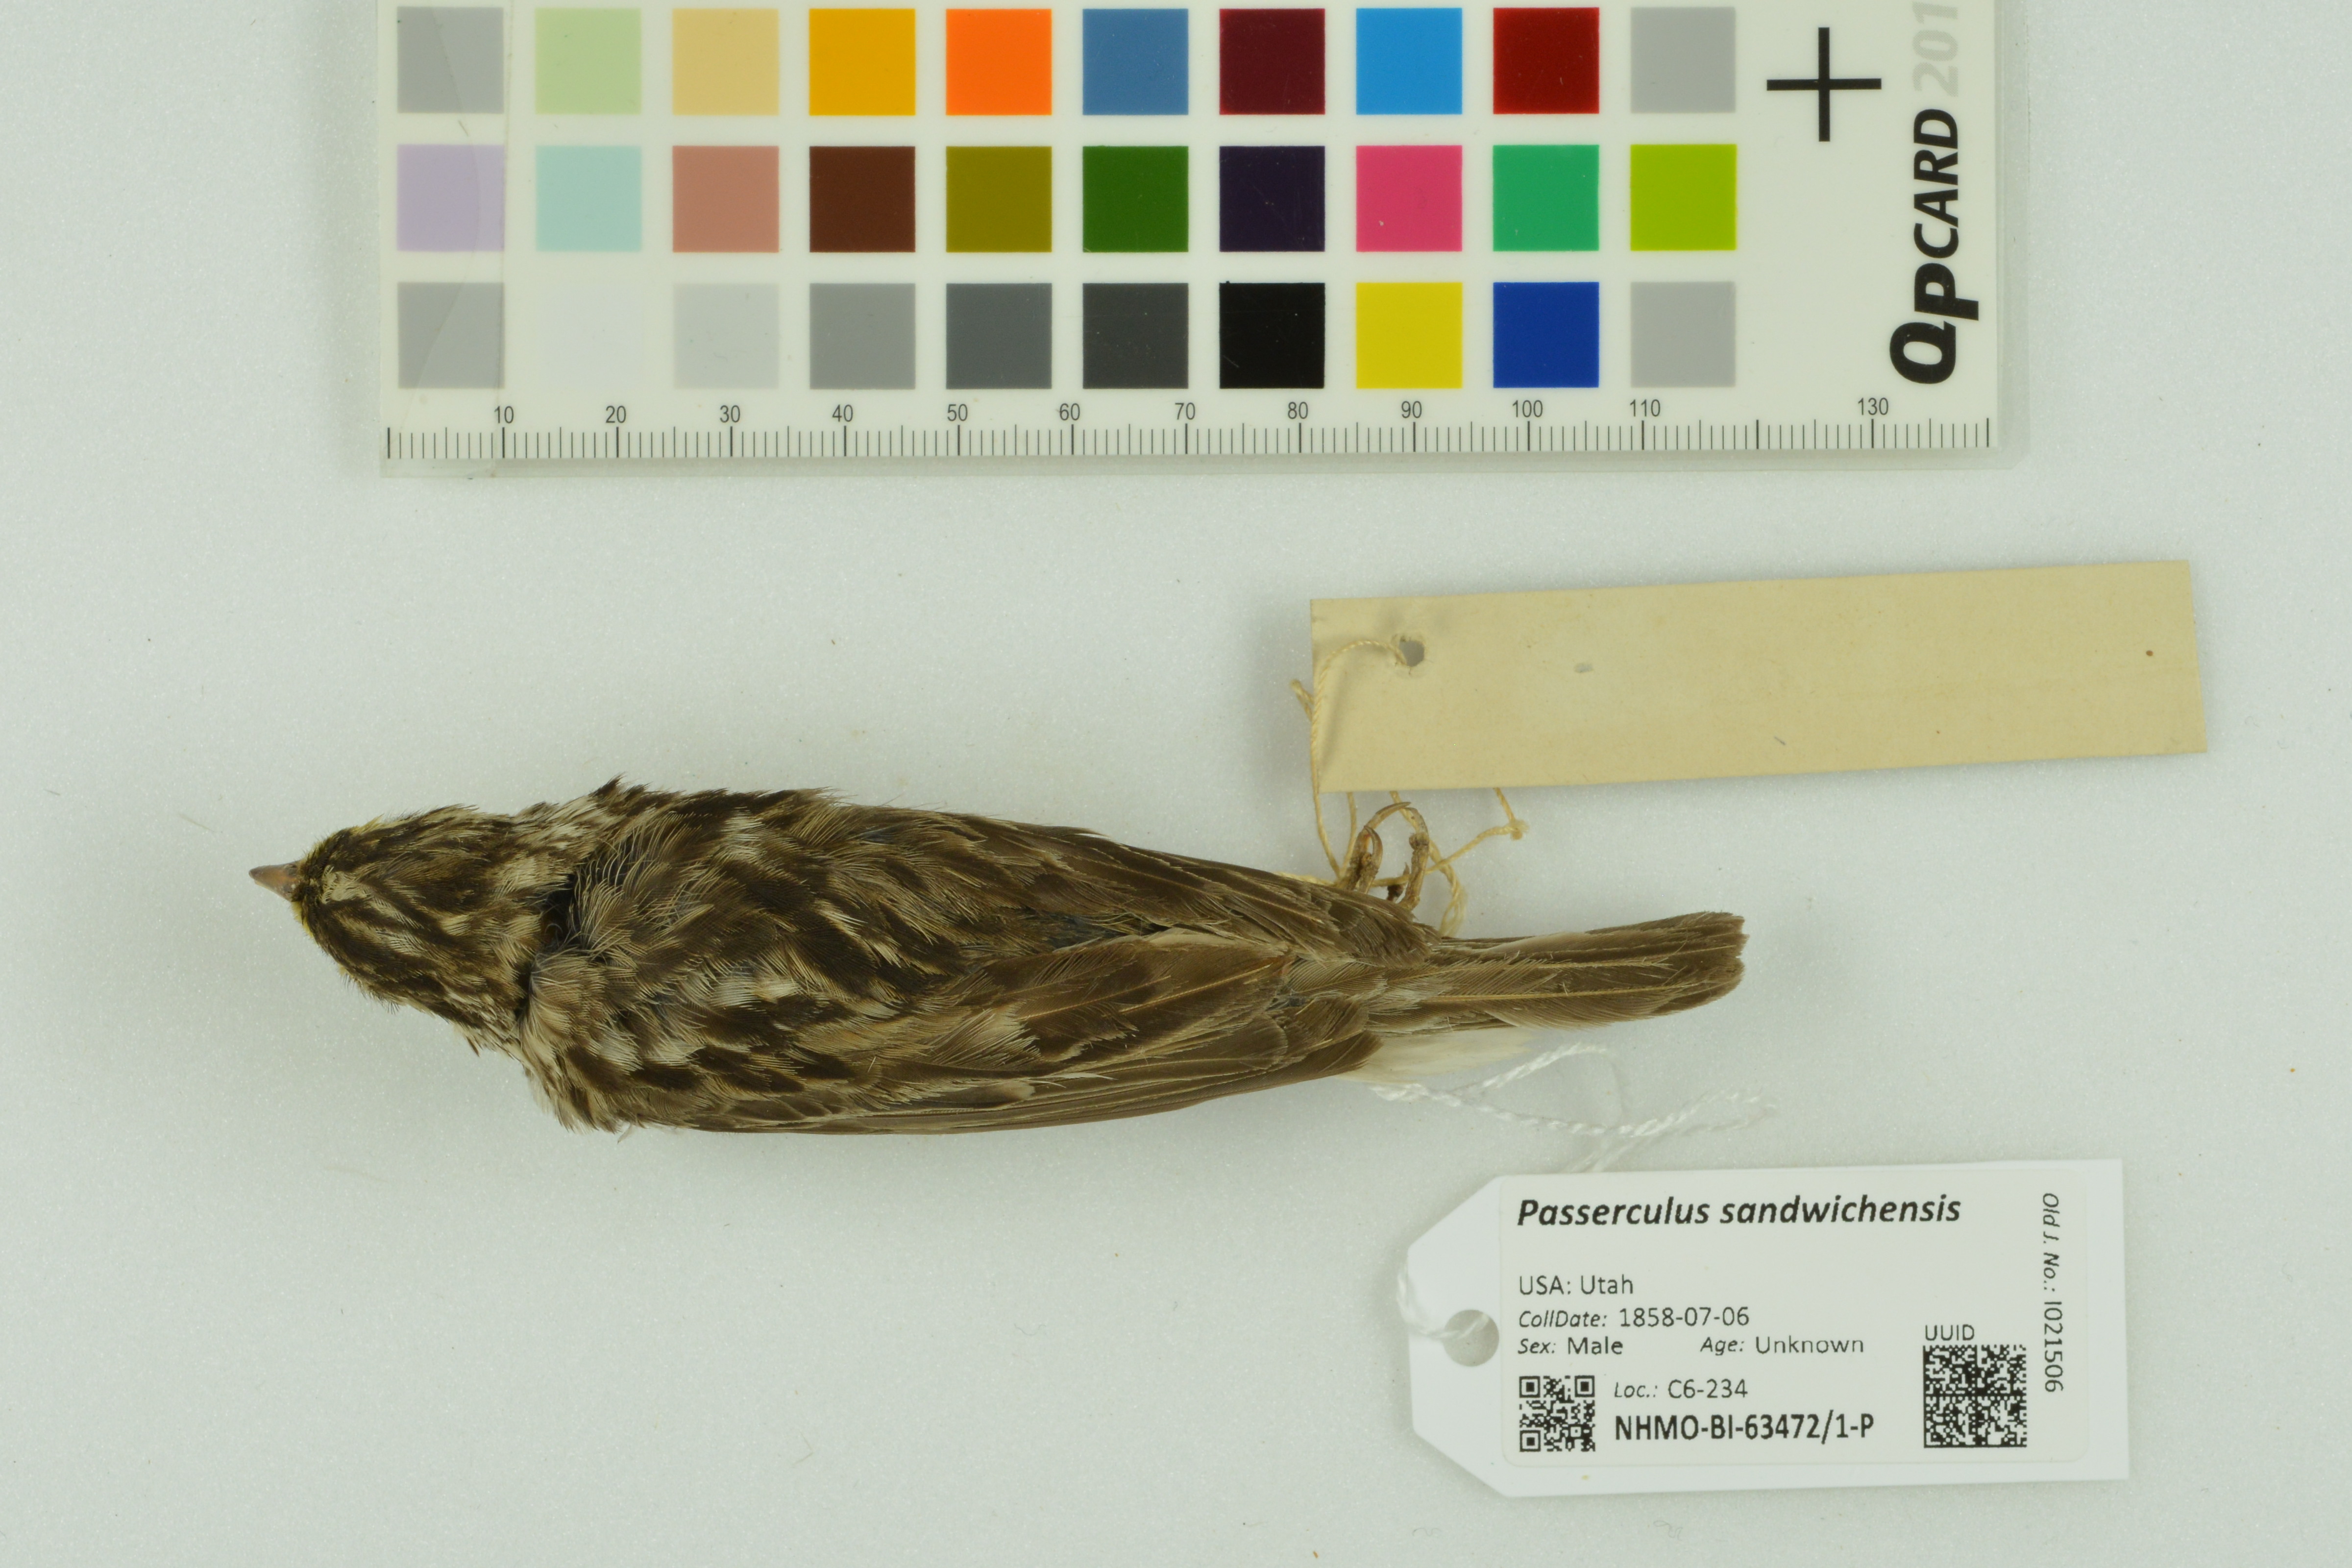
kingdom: Animalia
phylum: Chordata
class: Aves
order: Passeriformes
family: Passerellidae
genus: Passerculus
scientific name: Passerculus sandwichensis
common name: Savannah sparrow
